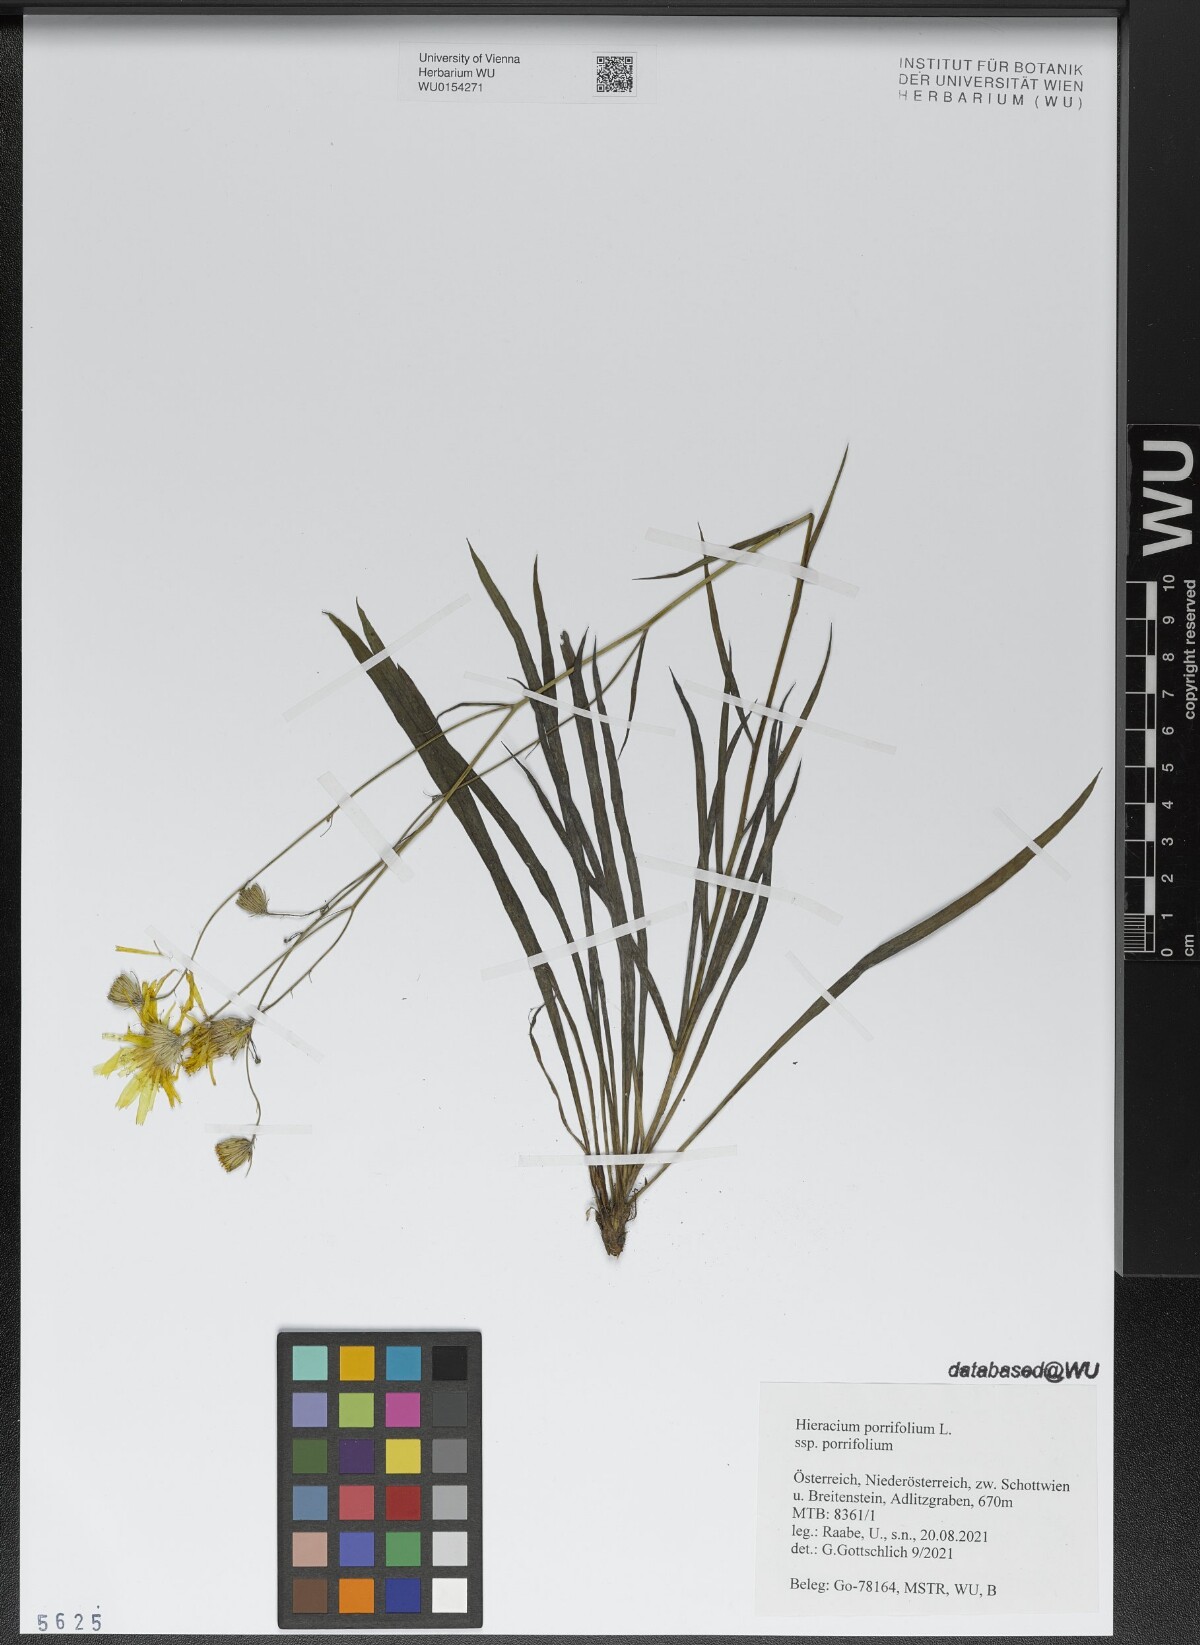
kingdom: Plantae
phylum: Tracheophyta
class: Magnoliopsida
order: Asterales
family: Asteraceae
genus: Hieracium
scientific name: Hieracium porrifolium
